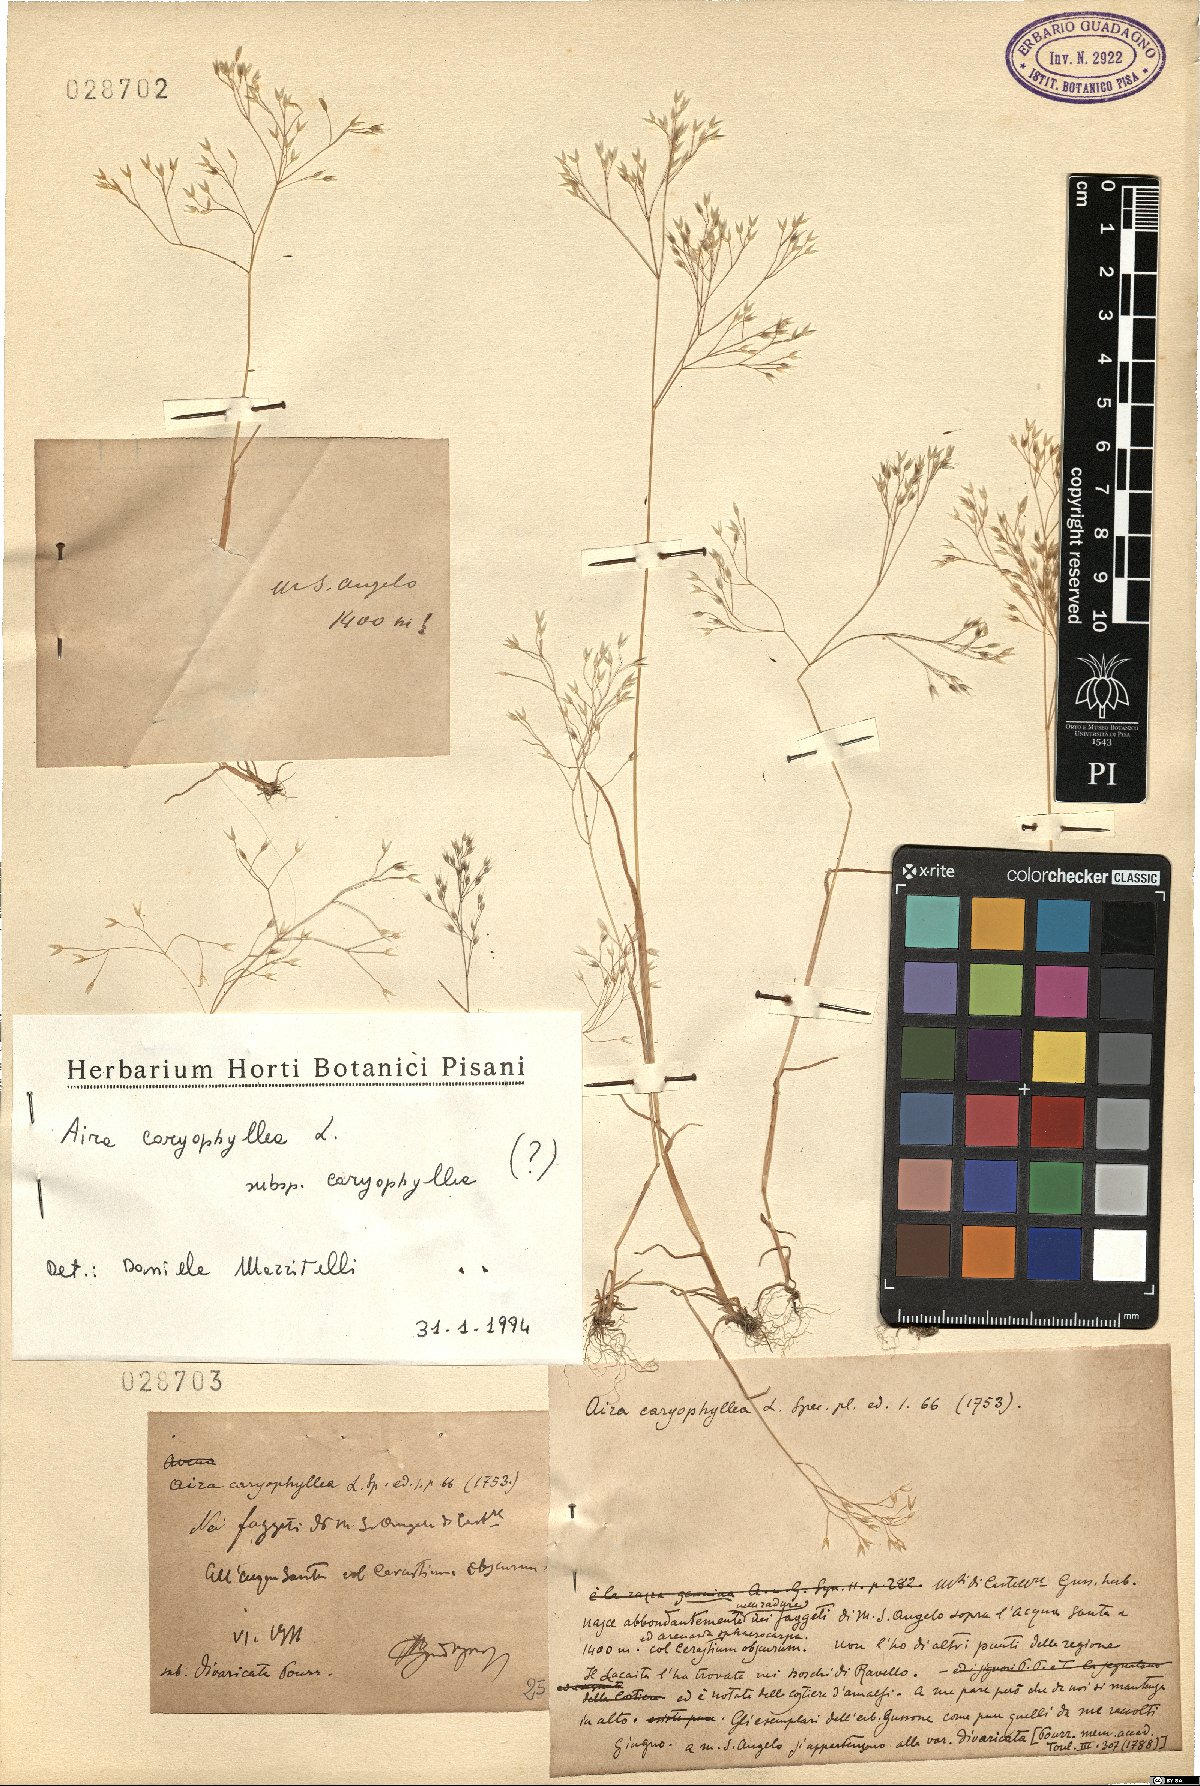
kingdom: Plantae
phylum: Tracheophyta
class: Liliopsida
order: Poales
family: Poaceae
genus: Aira
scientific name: Aira caryophyllea
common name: Silver hairgrass
